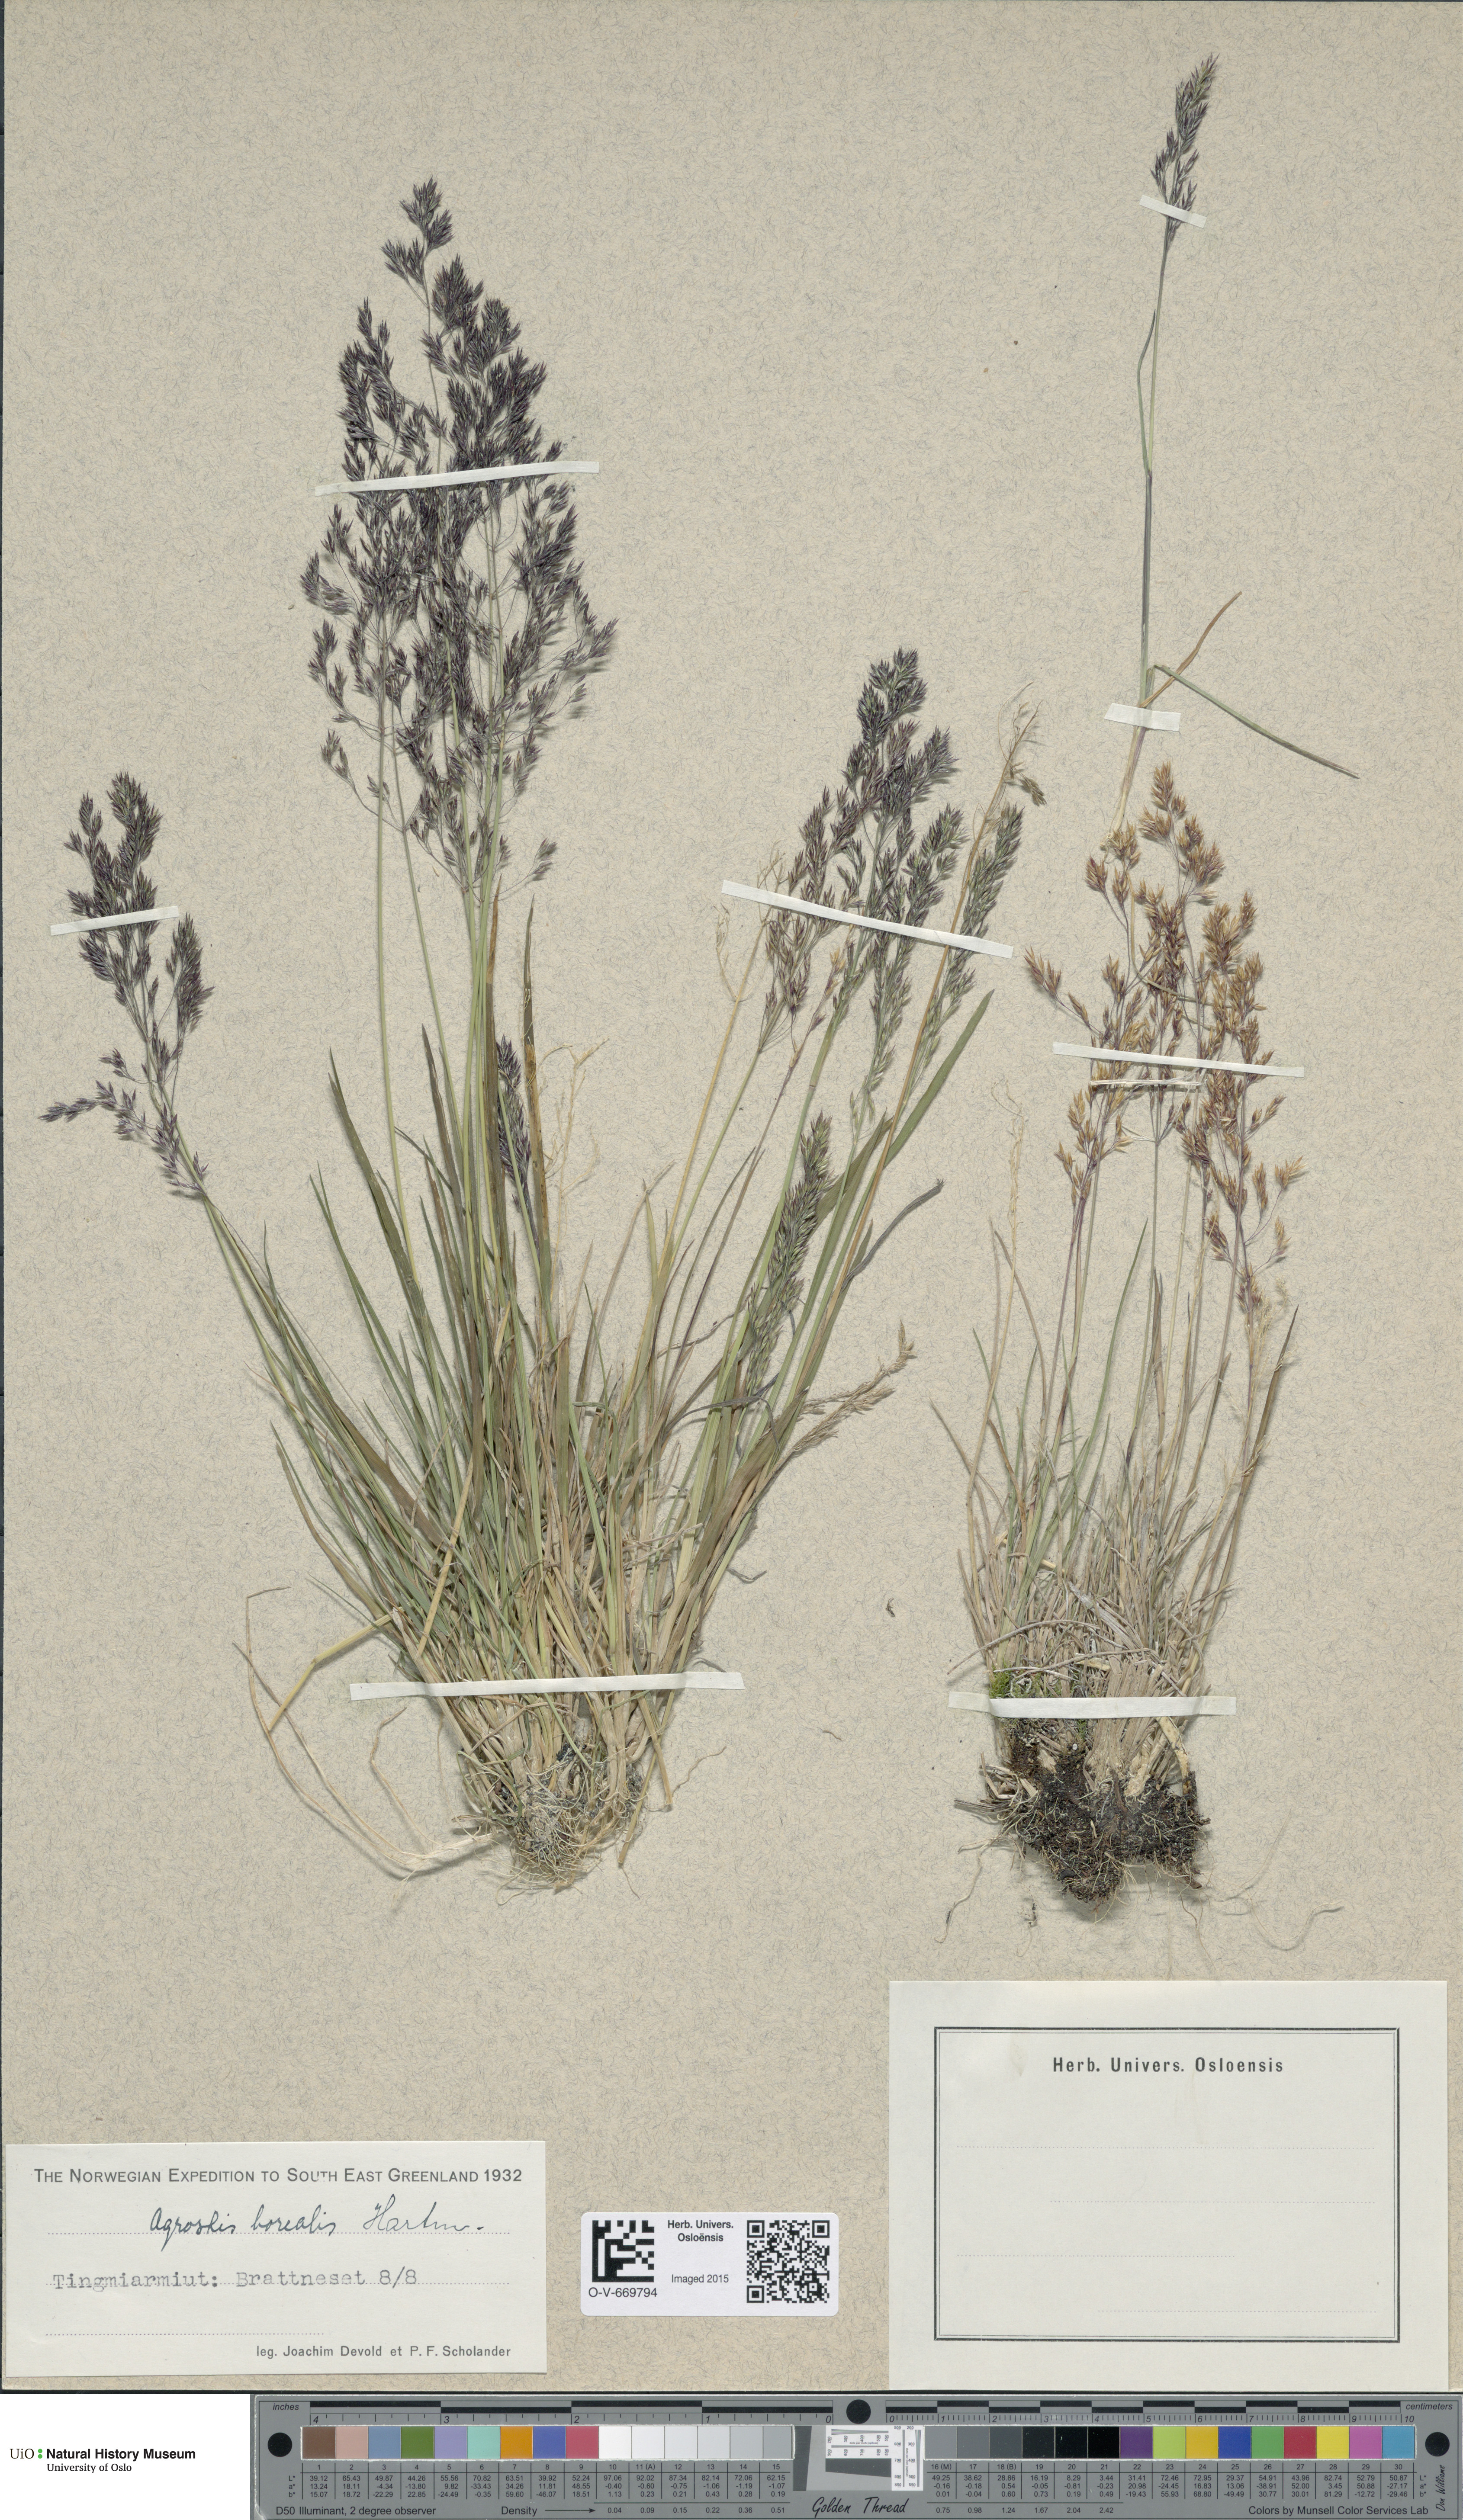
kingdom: Plantae
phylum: Tracheophyta
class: Liliopsida
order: Poales
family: Poaceae
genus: Agrostis
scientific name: Agrostis mertensii
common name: Northern bent
